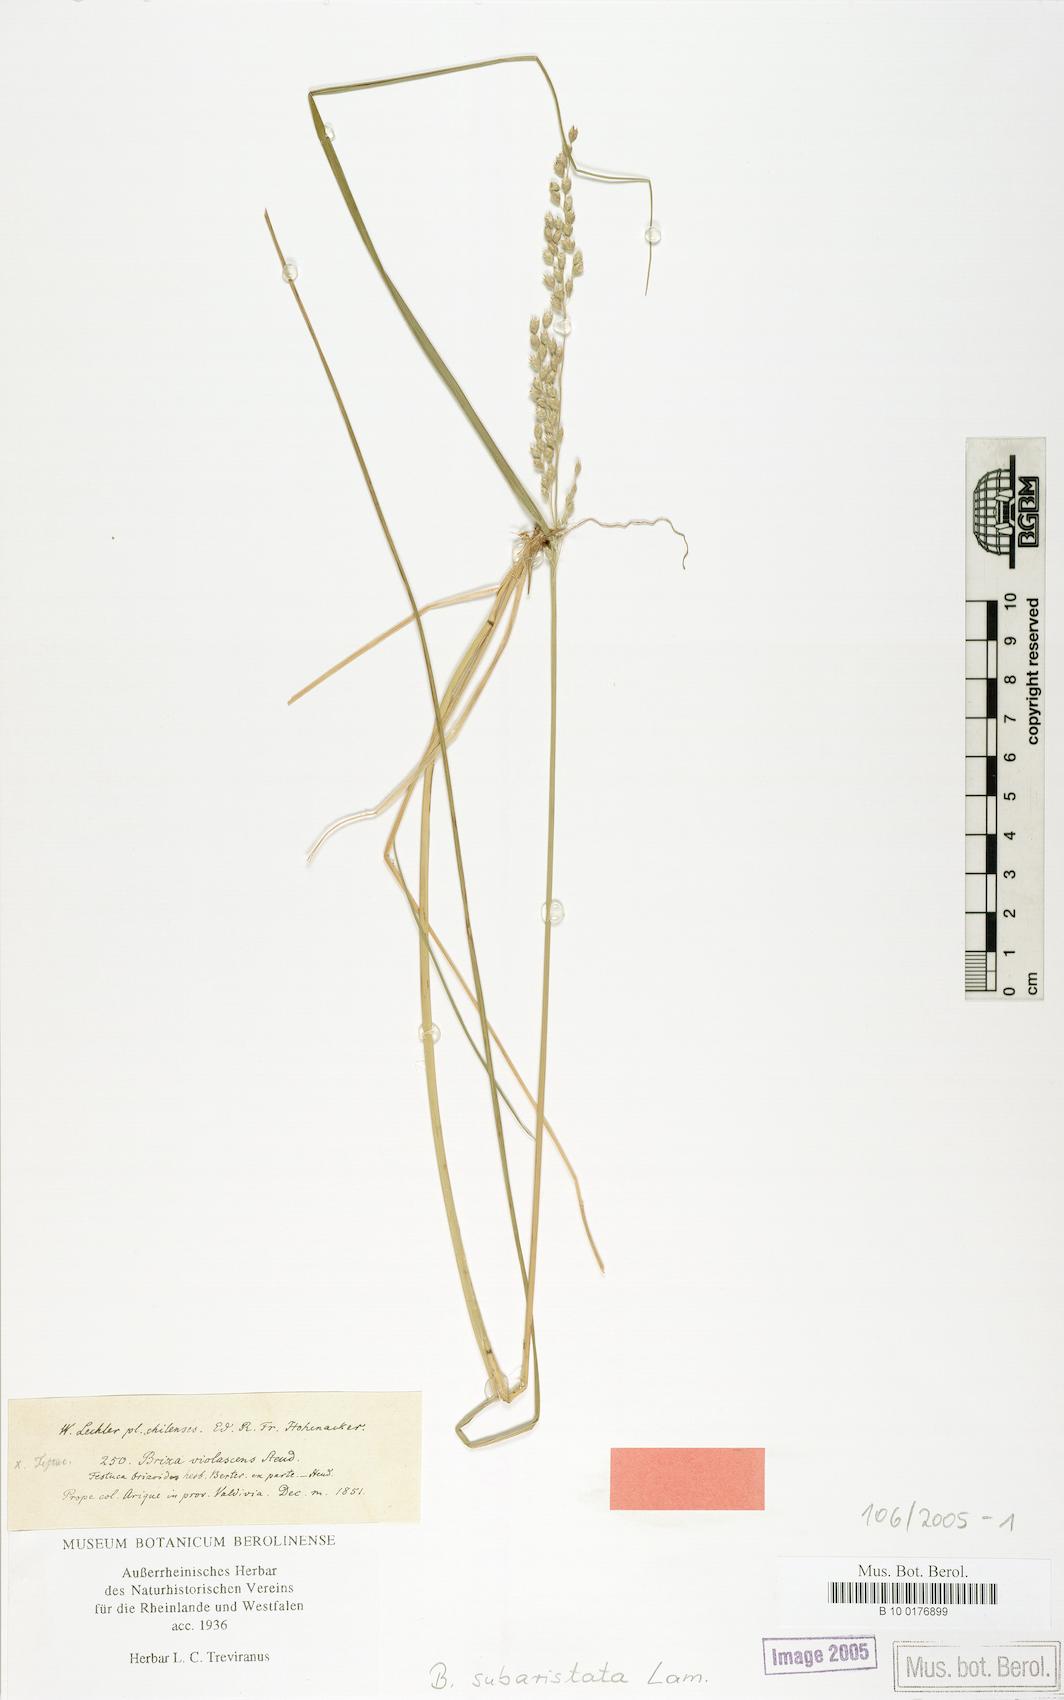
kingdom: Plantae
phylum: Tracheophyta
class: Liliopsida
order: Poales
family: Poaceae
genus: Chascolytrum
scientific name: Chascolytrum subaristatum
